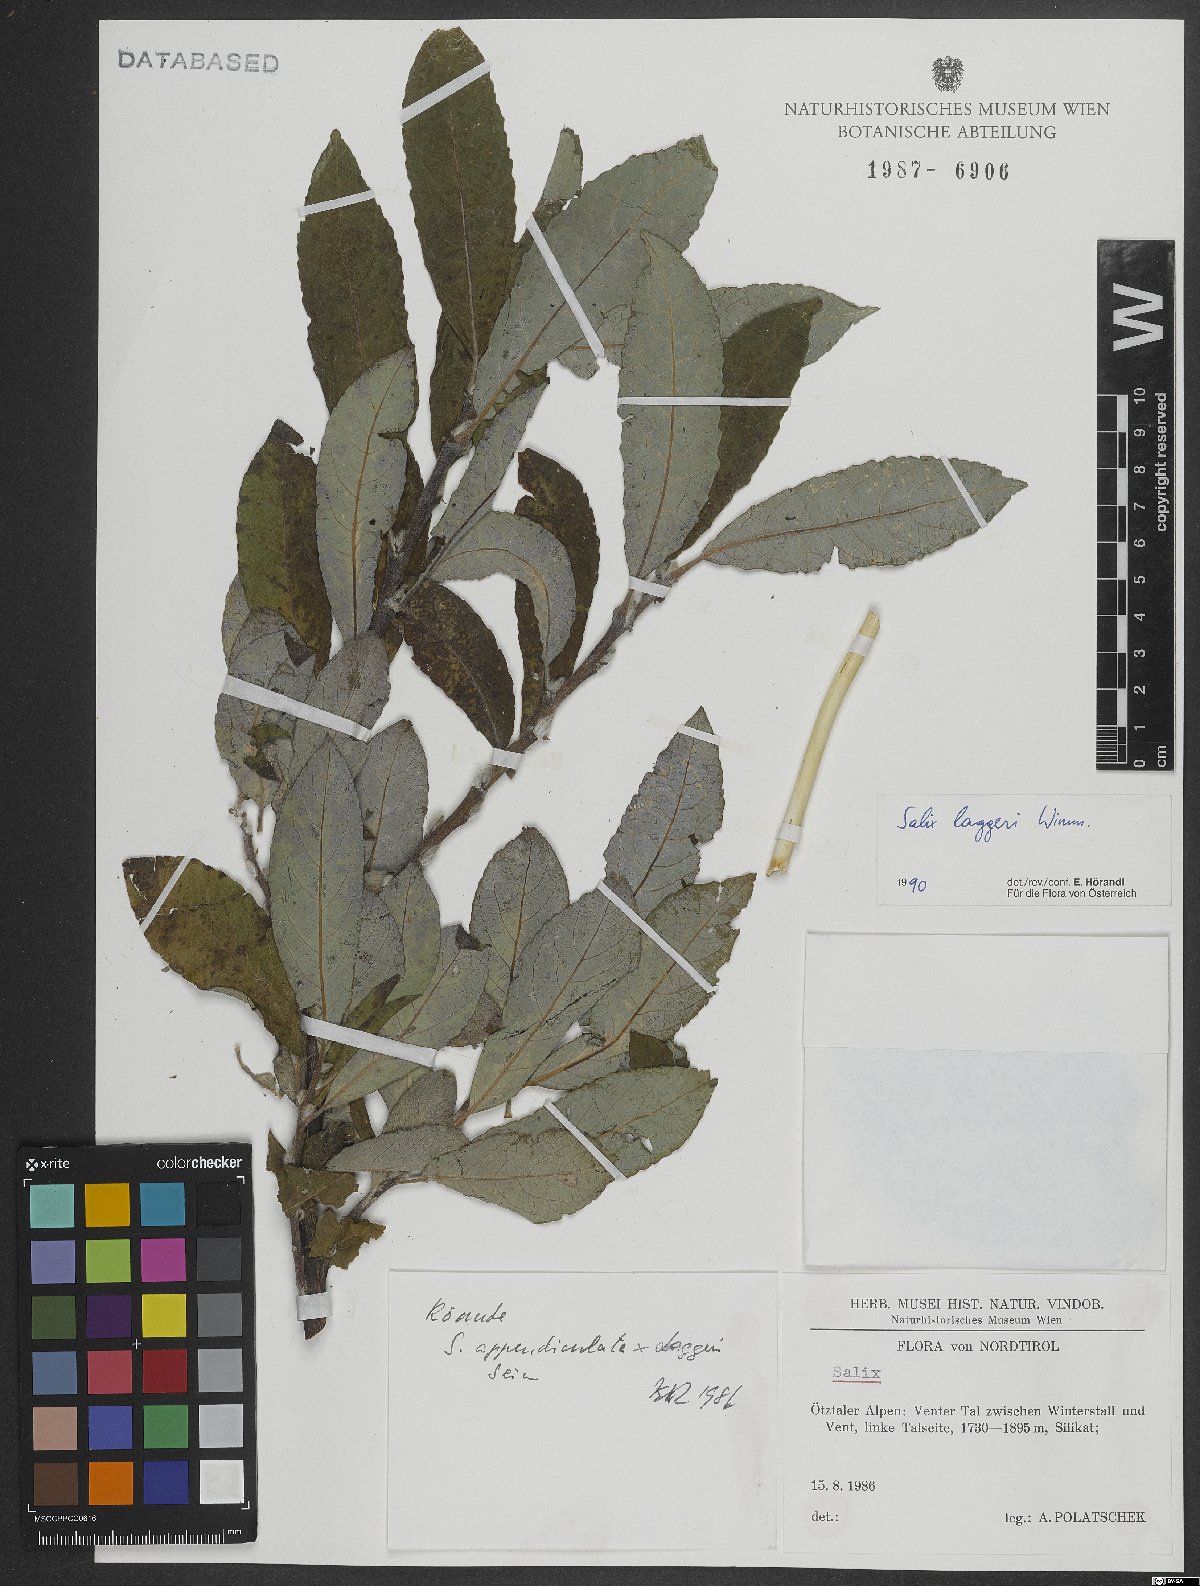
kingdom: Plantae
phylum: Tracheophyta
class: Magnoliopsida
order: Malpighiales
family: Salicaceae
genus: Salix
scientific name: Salix laggeri
